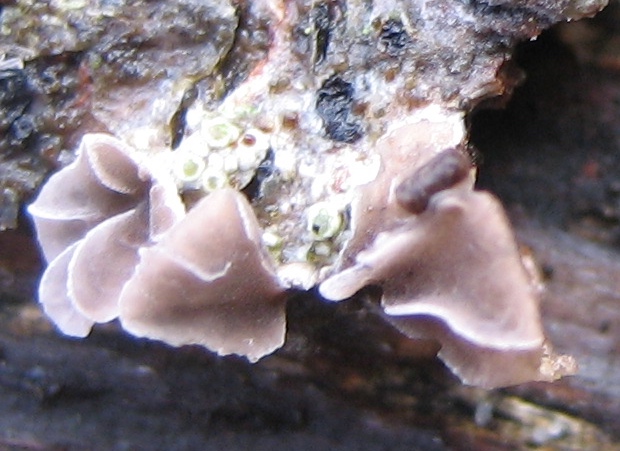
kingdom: Fungi
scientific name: Fungi
